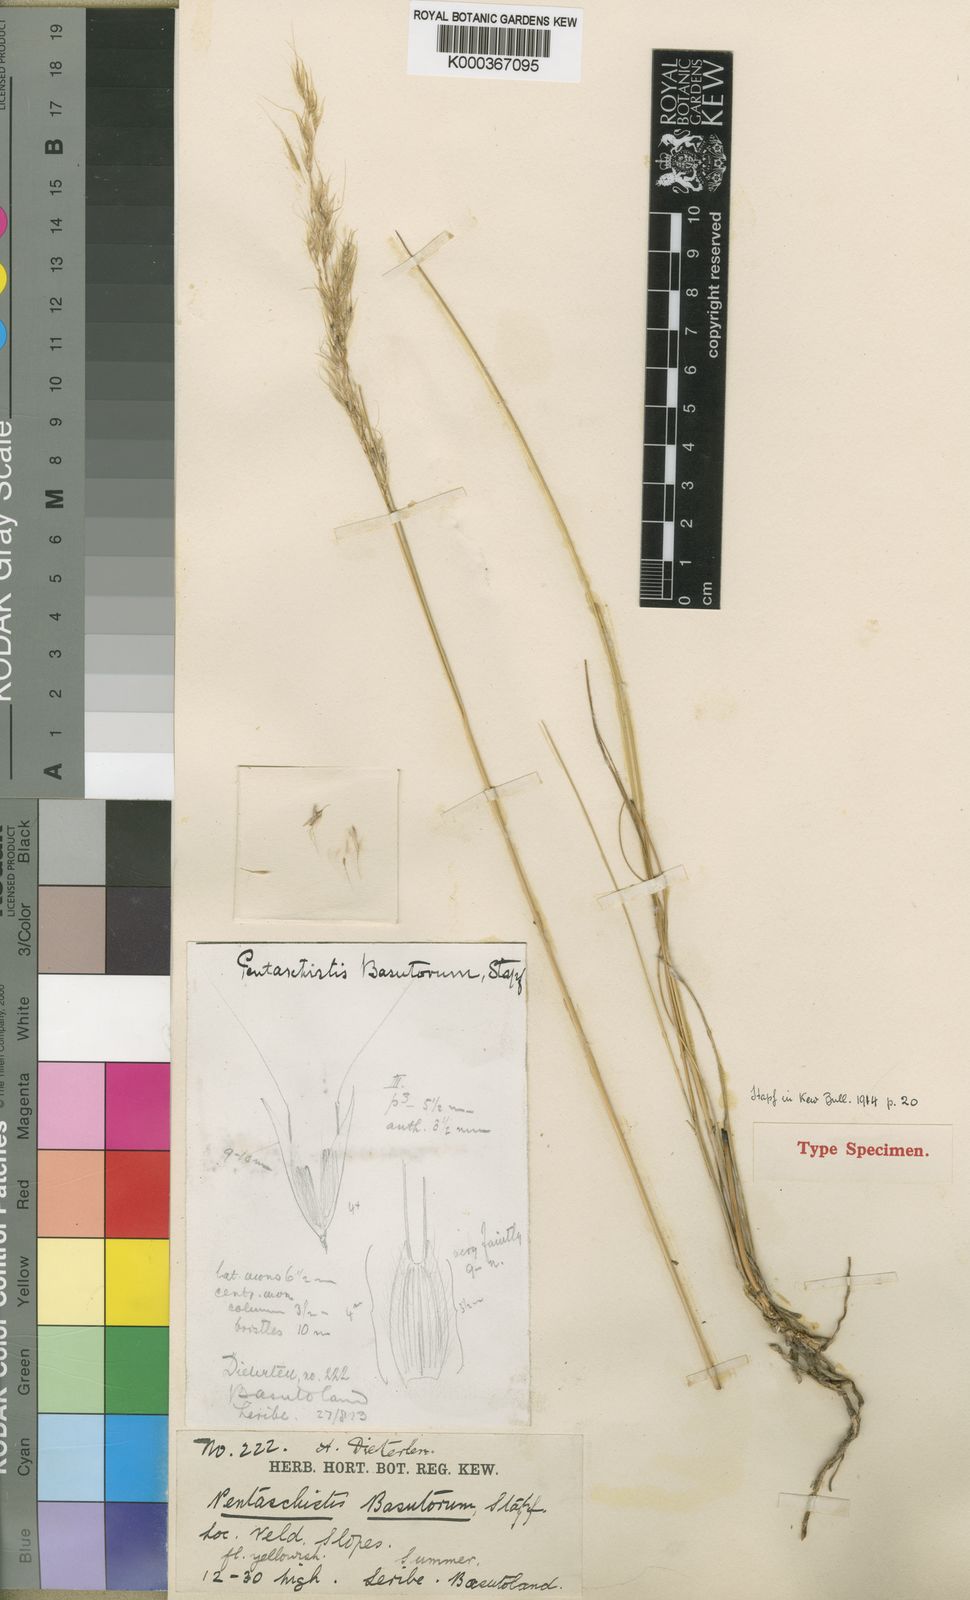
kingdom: Plantae
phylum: Tracheophyta
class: Liliopsida
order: Poales
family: Poaceae
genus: Pentameris
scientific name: Pentameris basutorum
